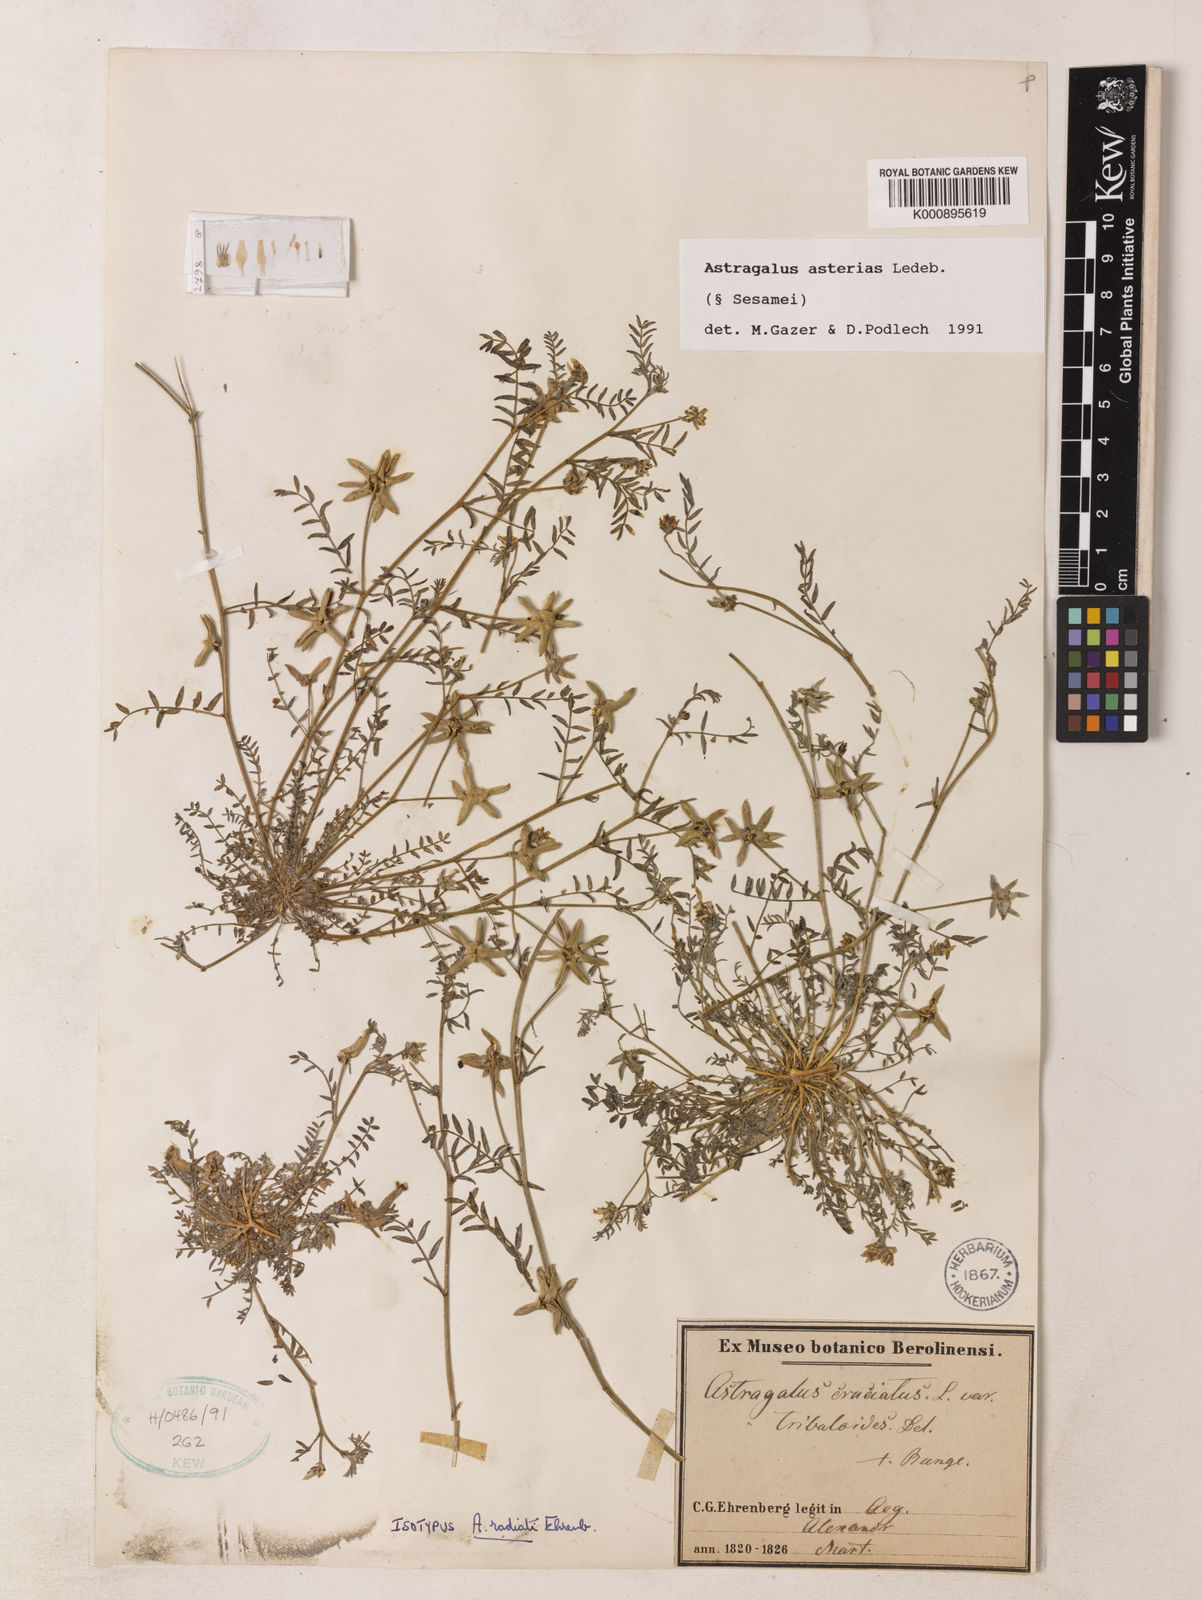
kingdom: Plantae
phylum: Tracheophyta
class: Magnoliopsida
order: Fabales
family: Fabaceae
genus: Astragalus
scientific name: Astragalus
